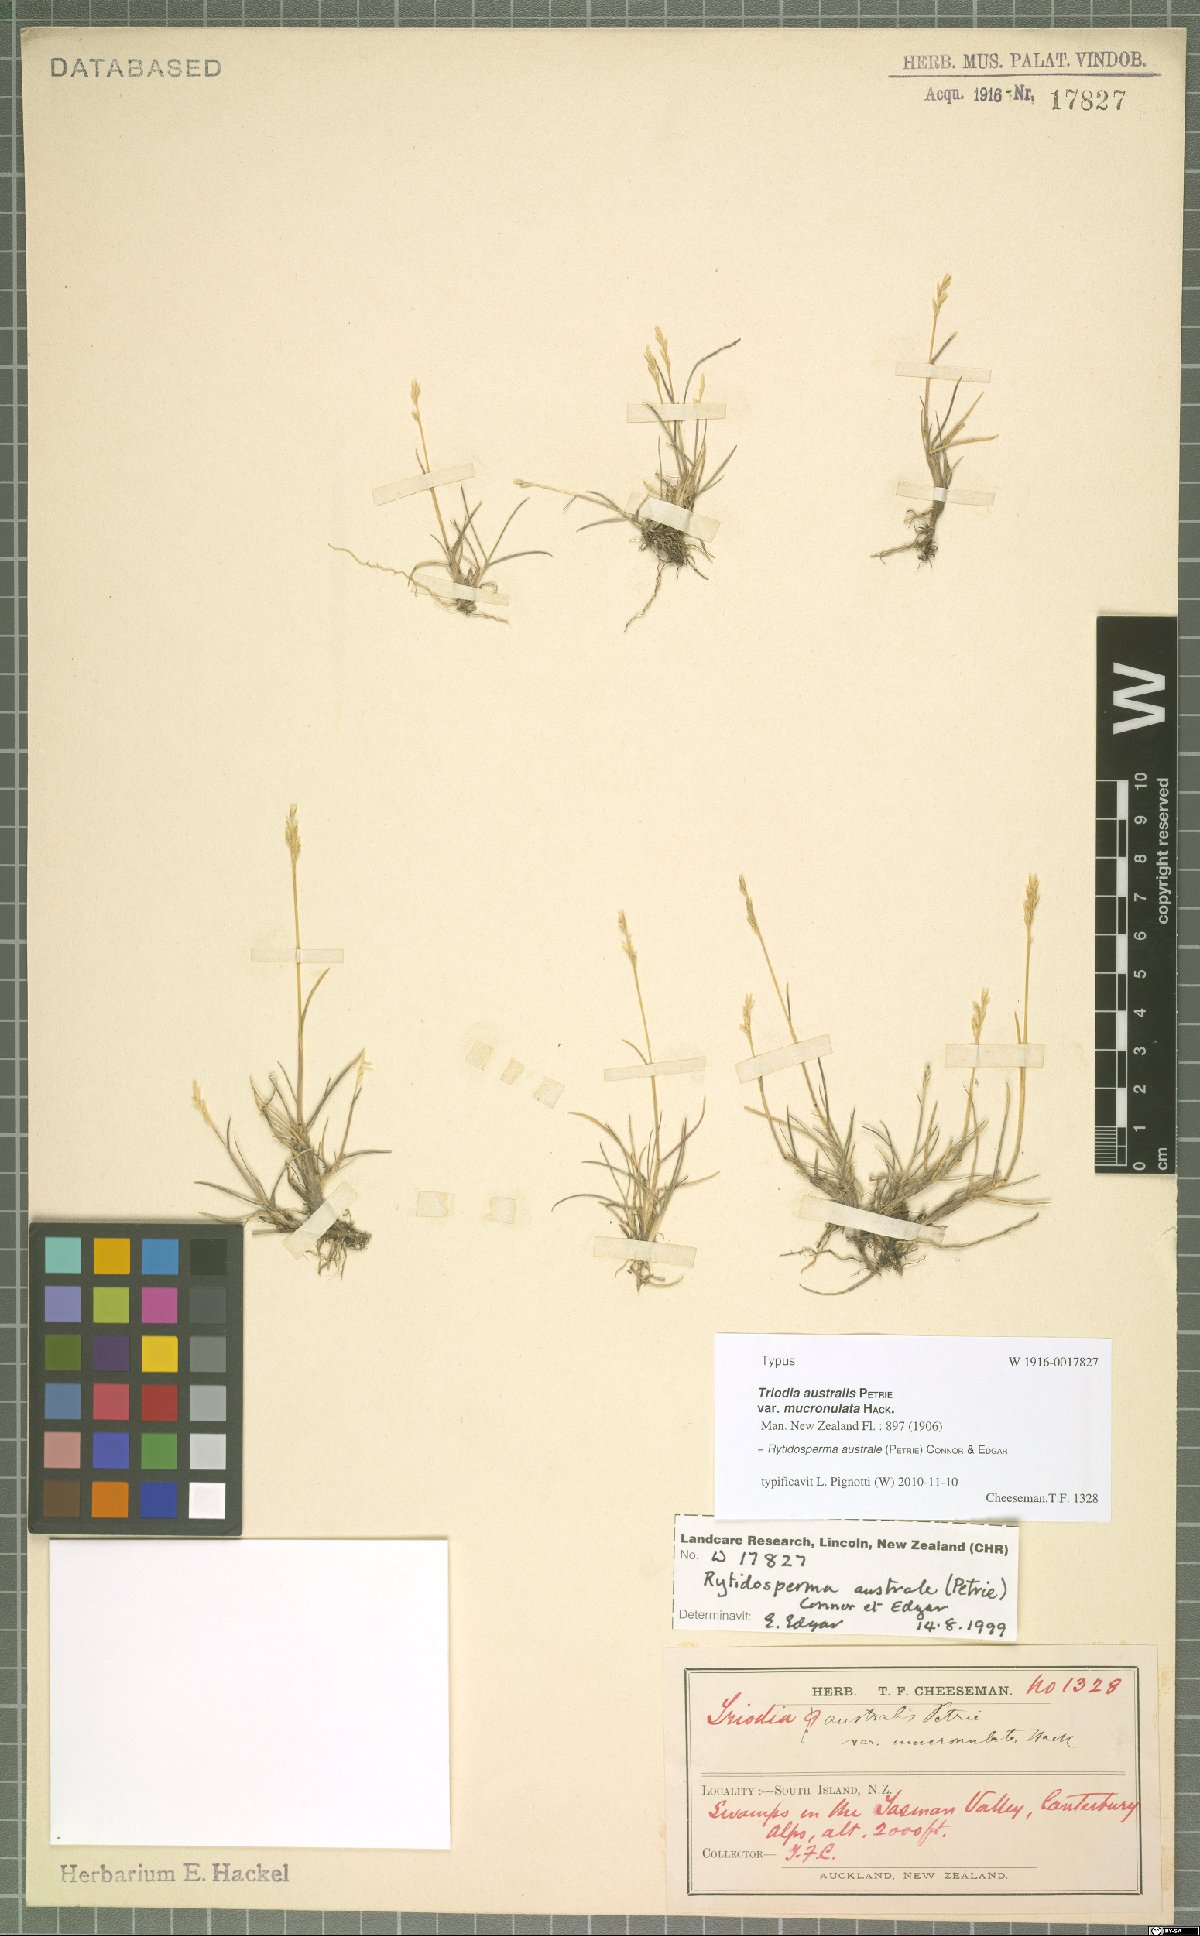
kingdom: Plantae
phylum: Tracheophyta
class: Liliopsida
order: Poales
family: Poaceae
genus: Rytidosperma
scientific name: Rytidosperma australe
